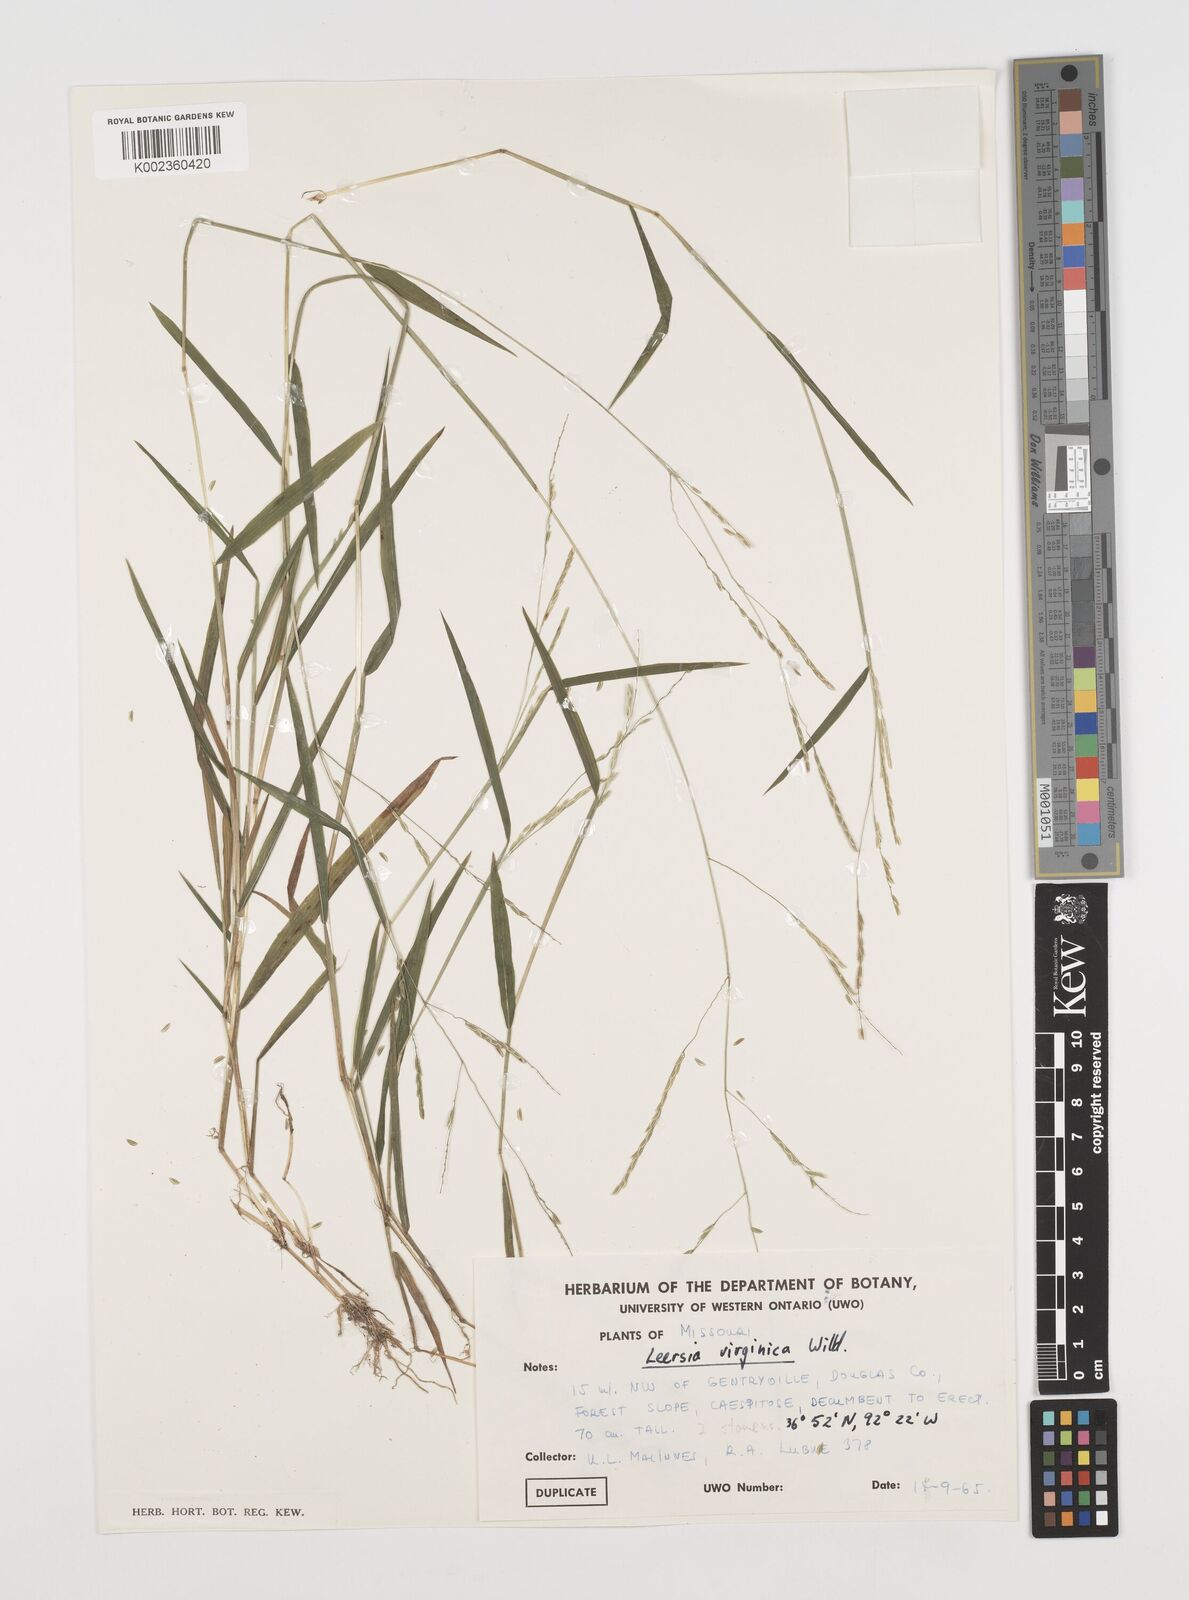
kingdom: Plantae
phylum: Tracheophyta
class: Liliopsida
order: Poales
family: Poaceae
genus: Leersia
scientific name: Leersia virginica
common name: White cutgrass
